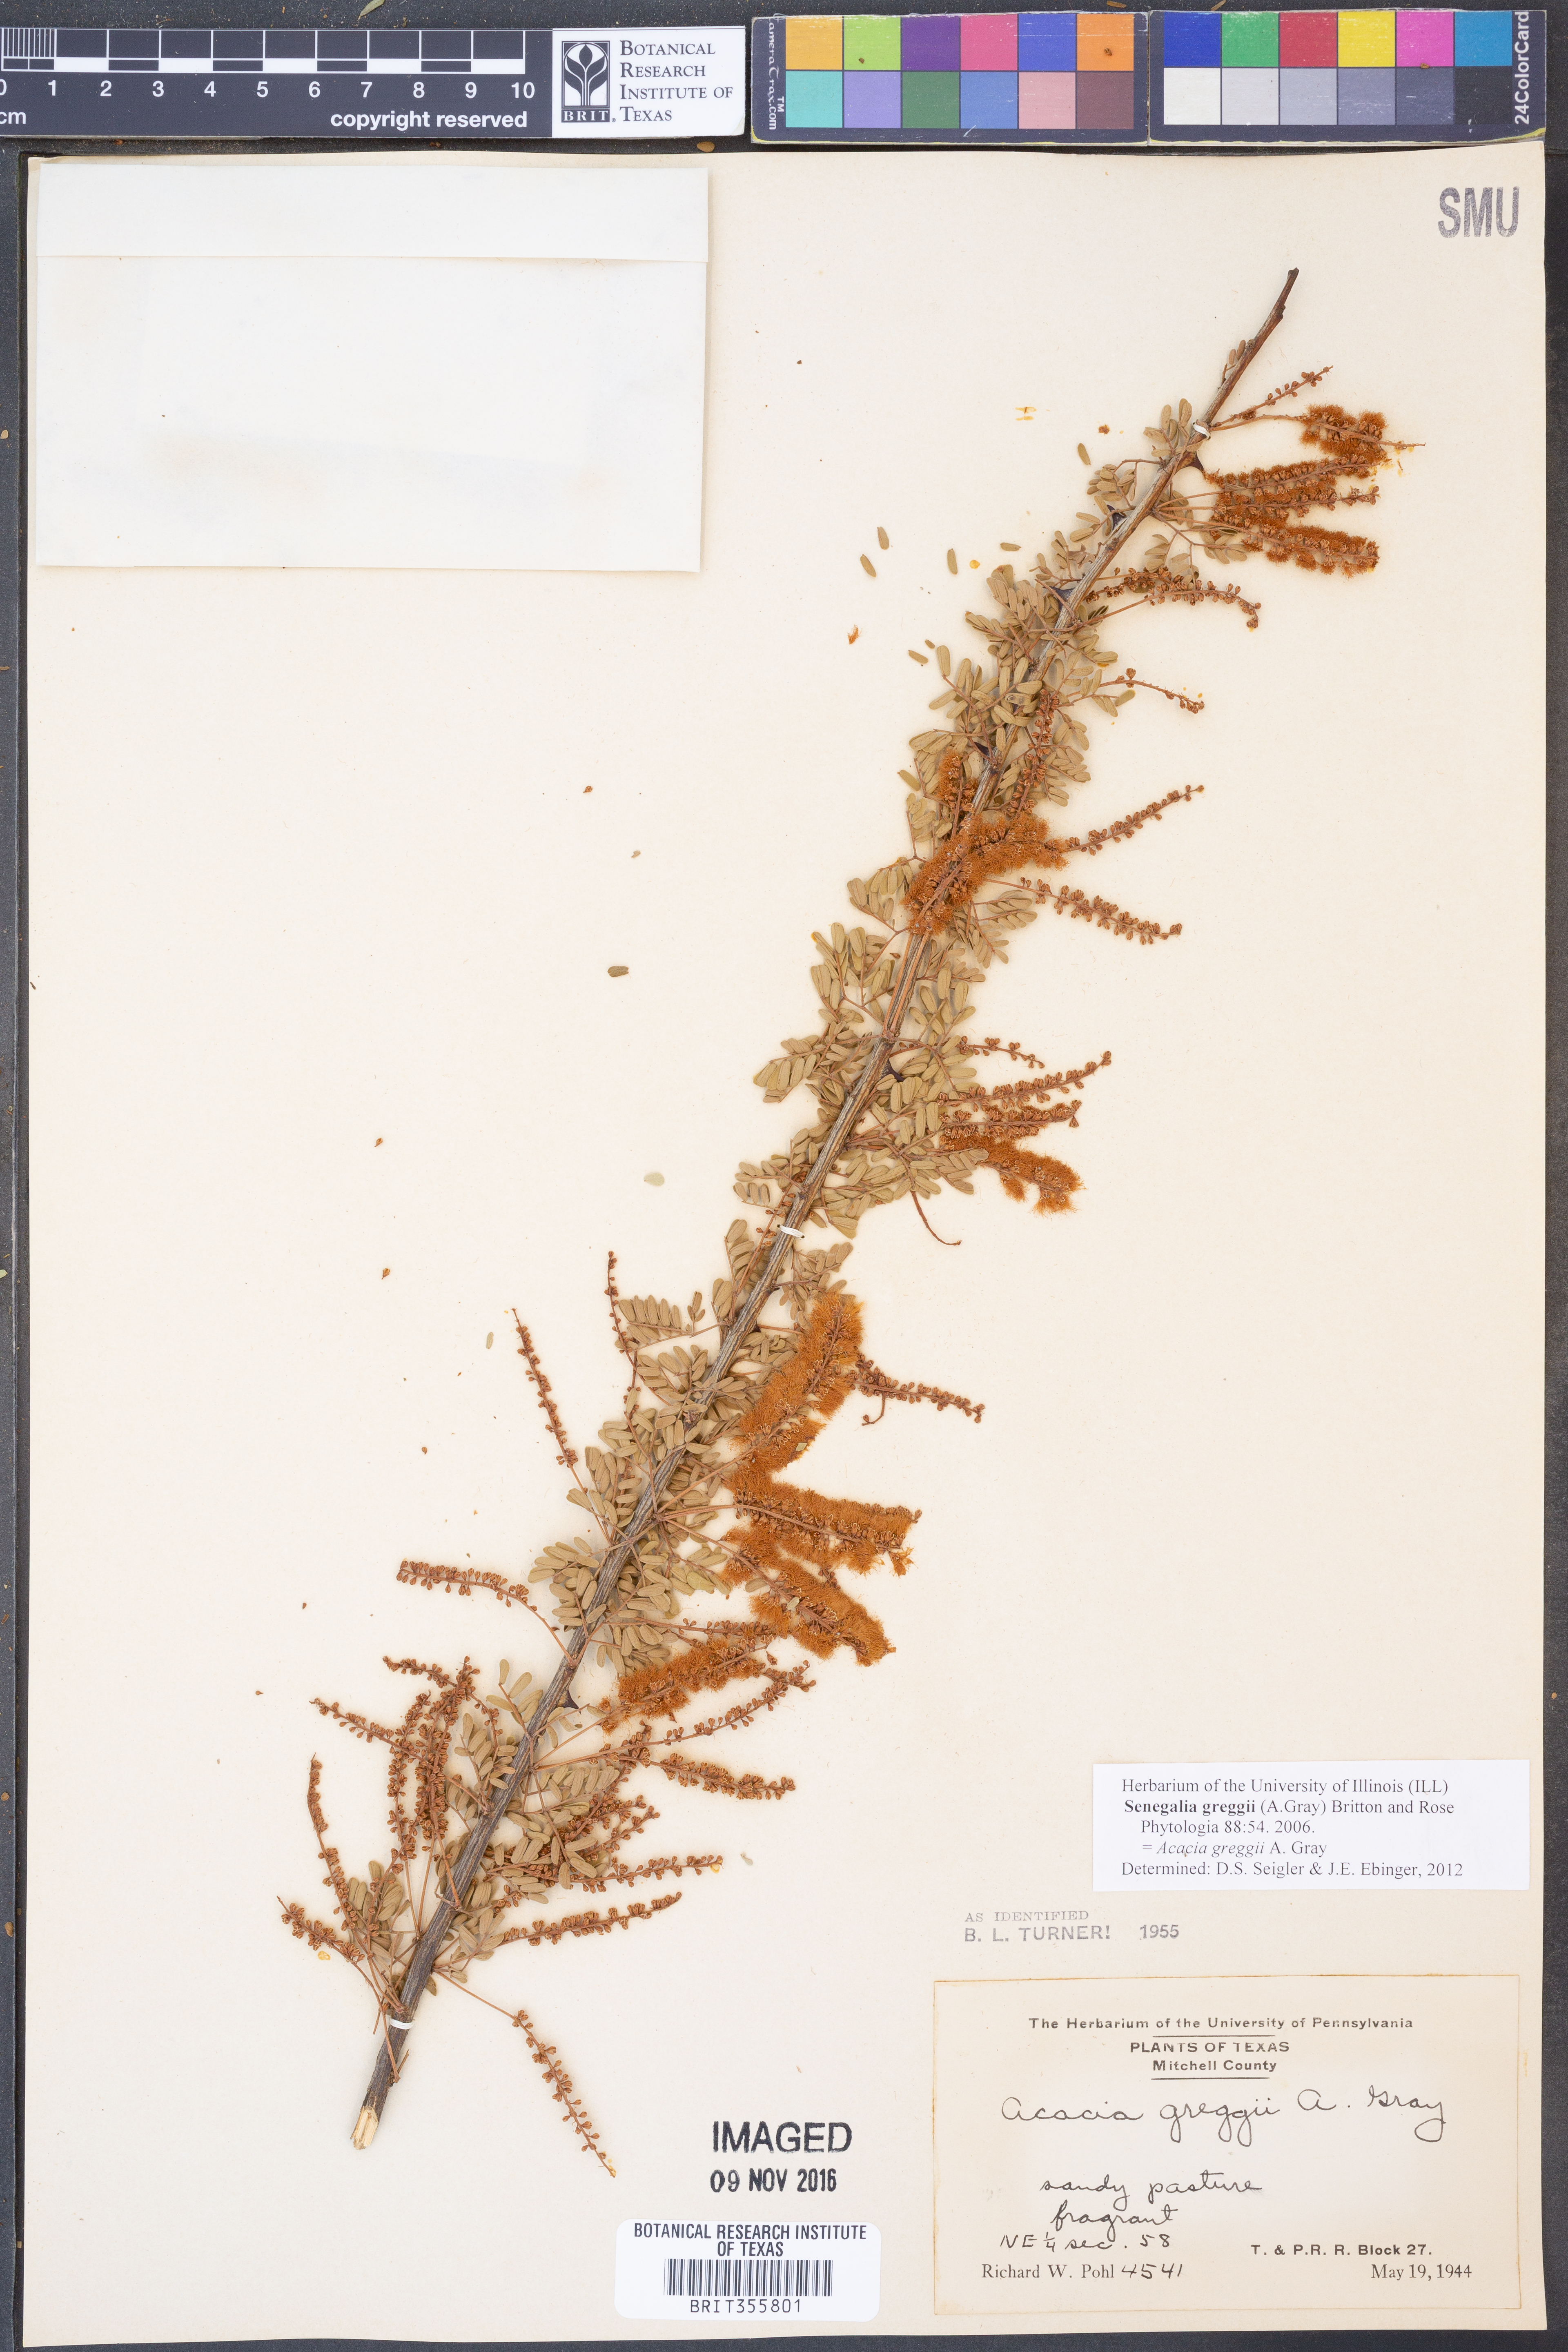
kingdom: Plantae
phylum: Tracheophyta
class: Magnoliopsida
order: Fabales
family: Fabaceae
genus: Senegalia
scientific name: Senegalia greggii
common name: Texas-mimosa
